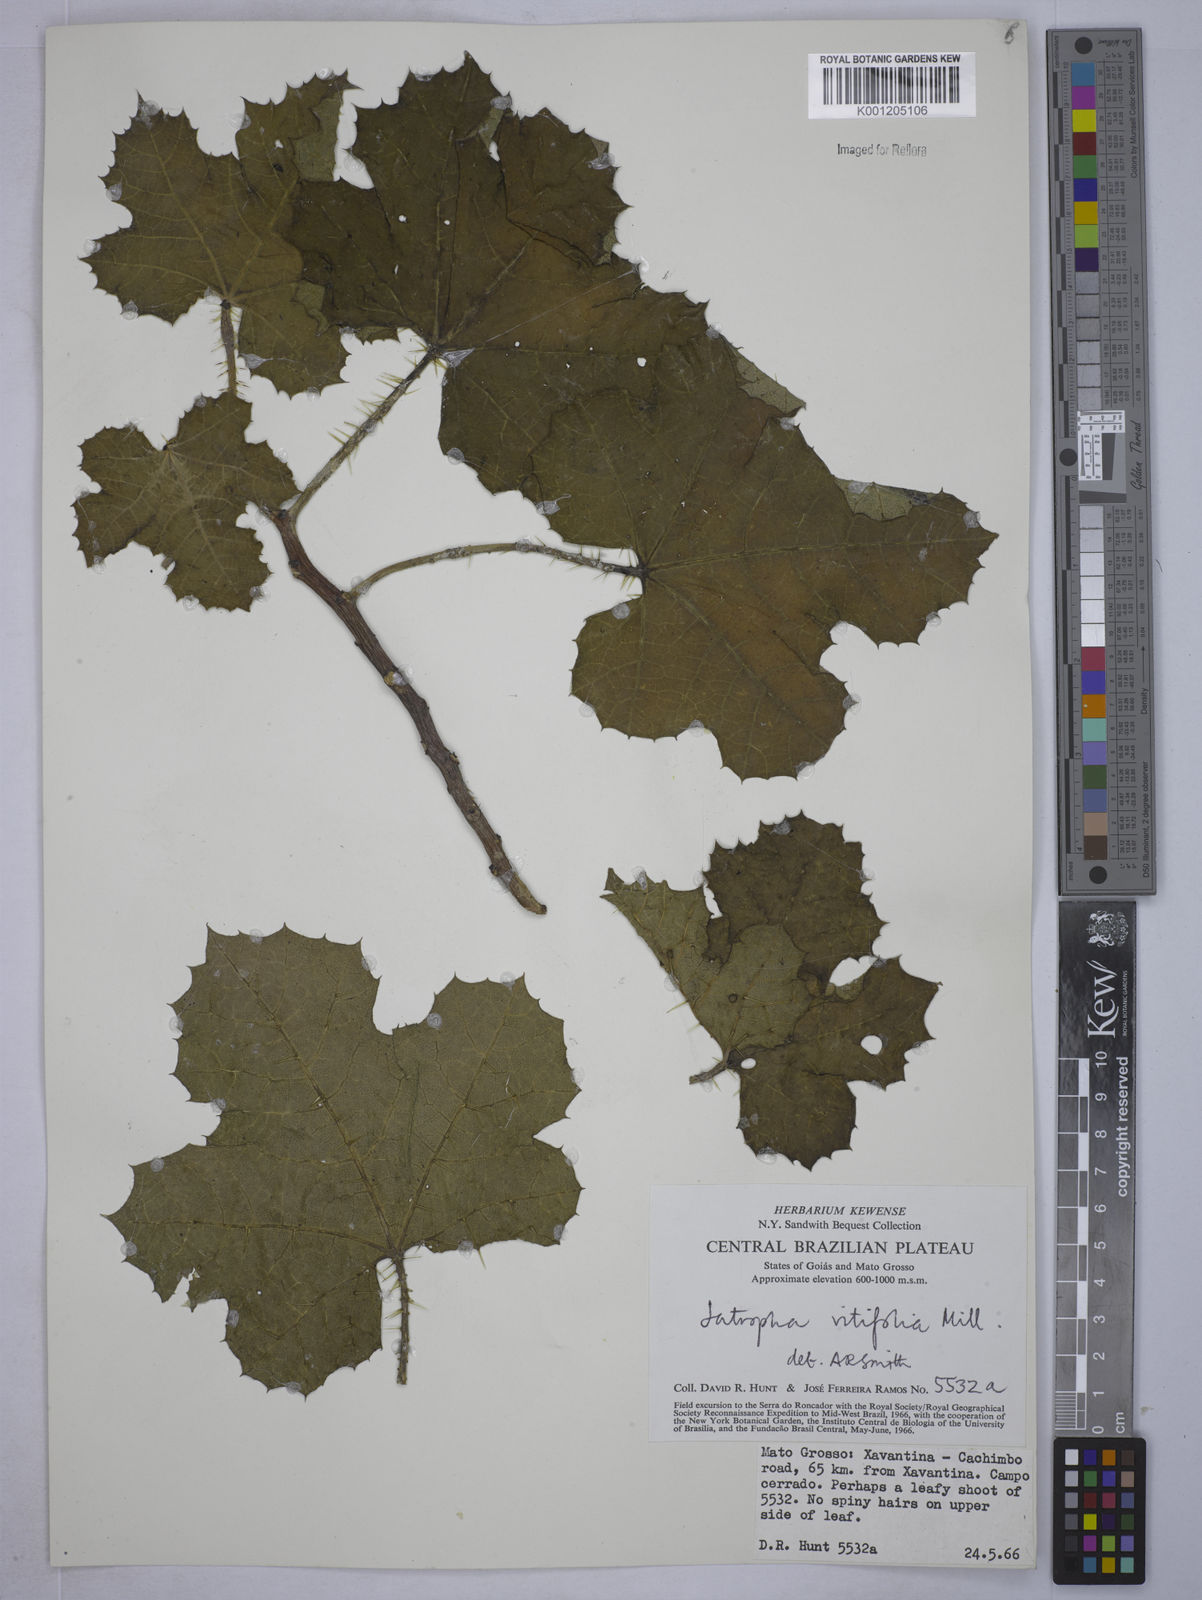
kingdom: Plantae
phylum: Tracheophyta
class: Magnoliopsida
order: Malpighiales
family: Euphorbiaceae
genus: Cnidoscolus
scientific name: Cnidoscolus vitifolius
